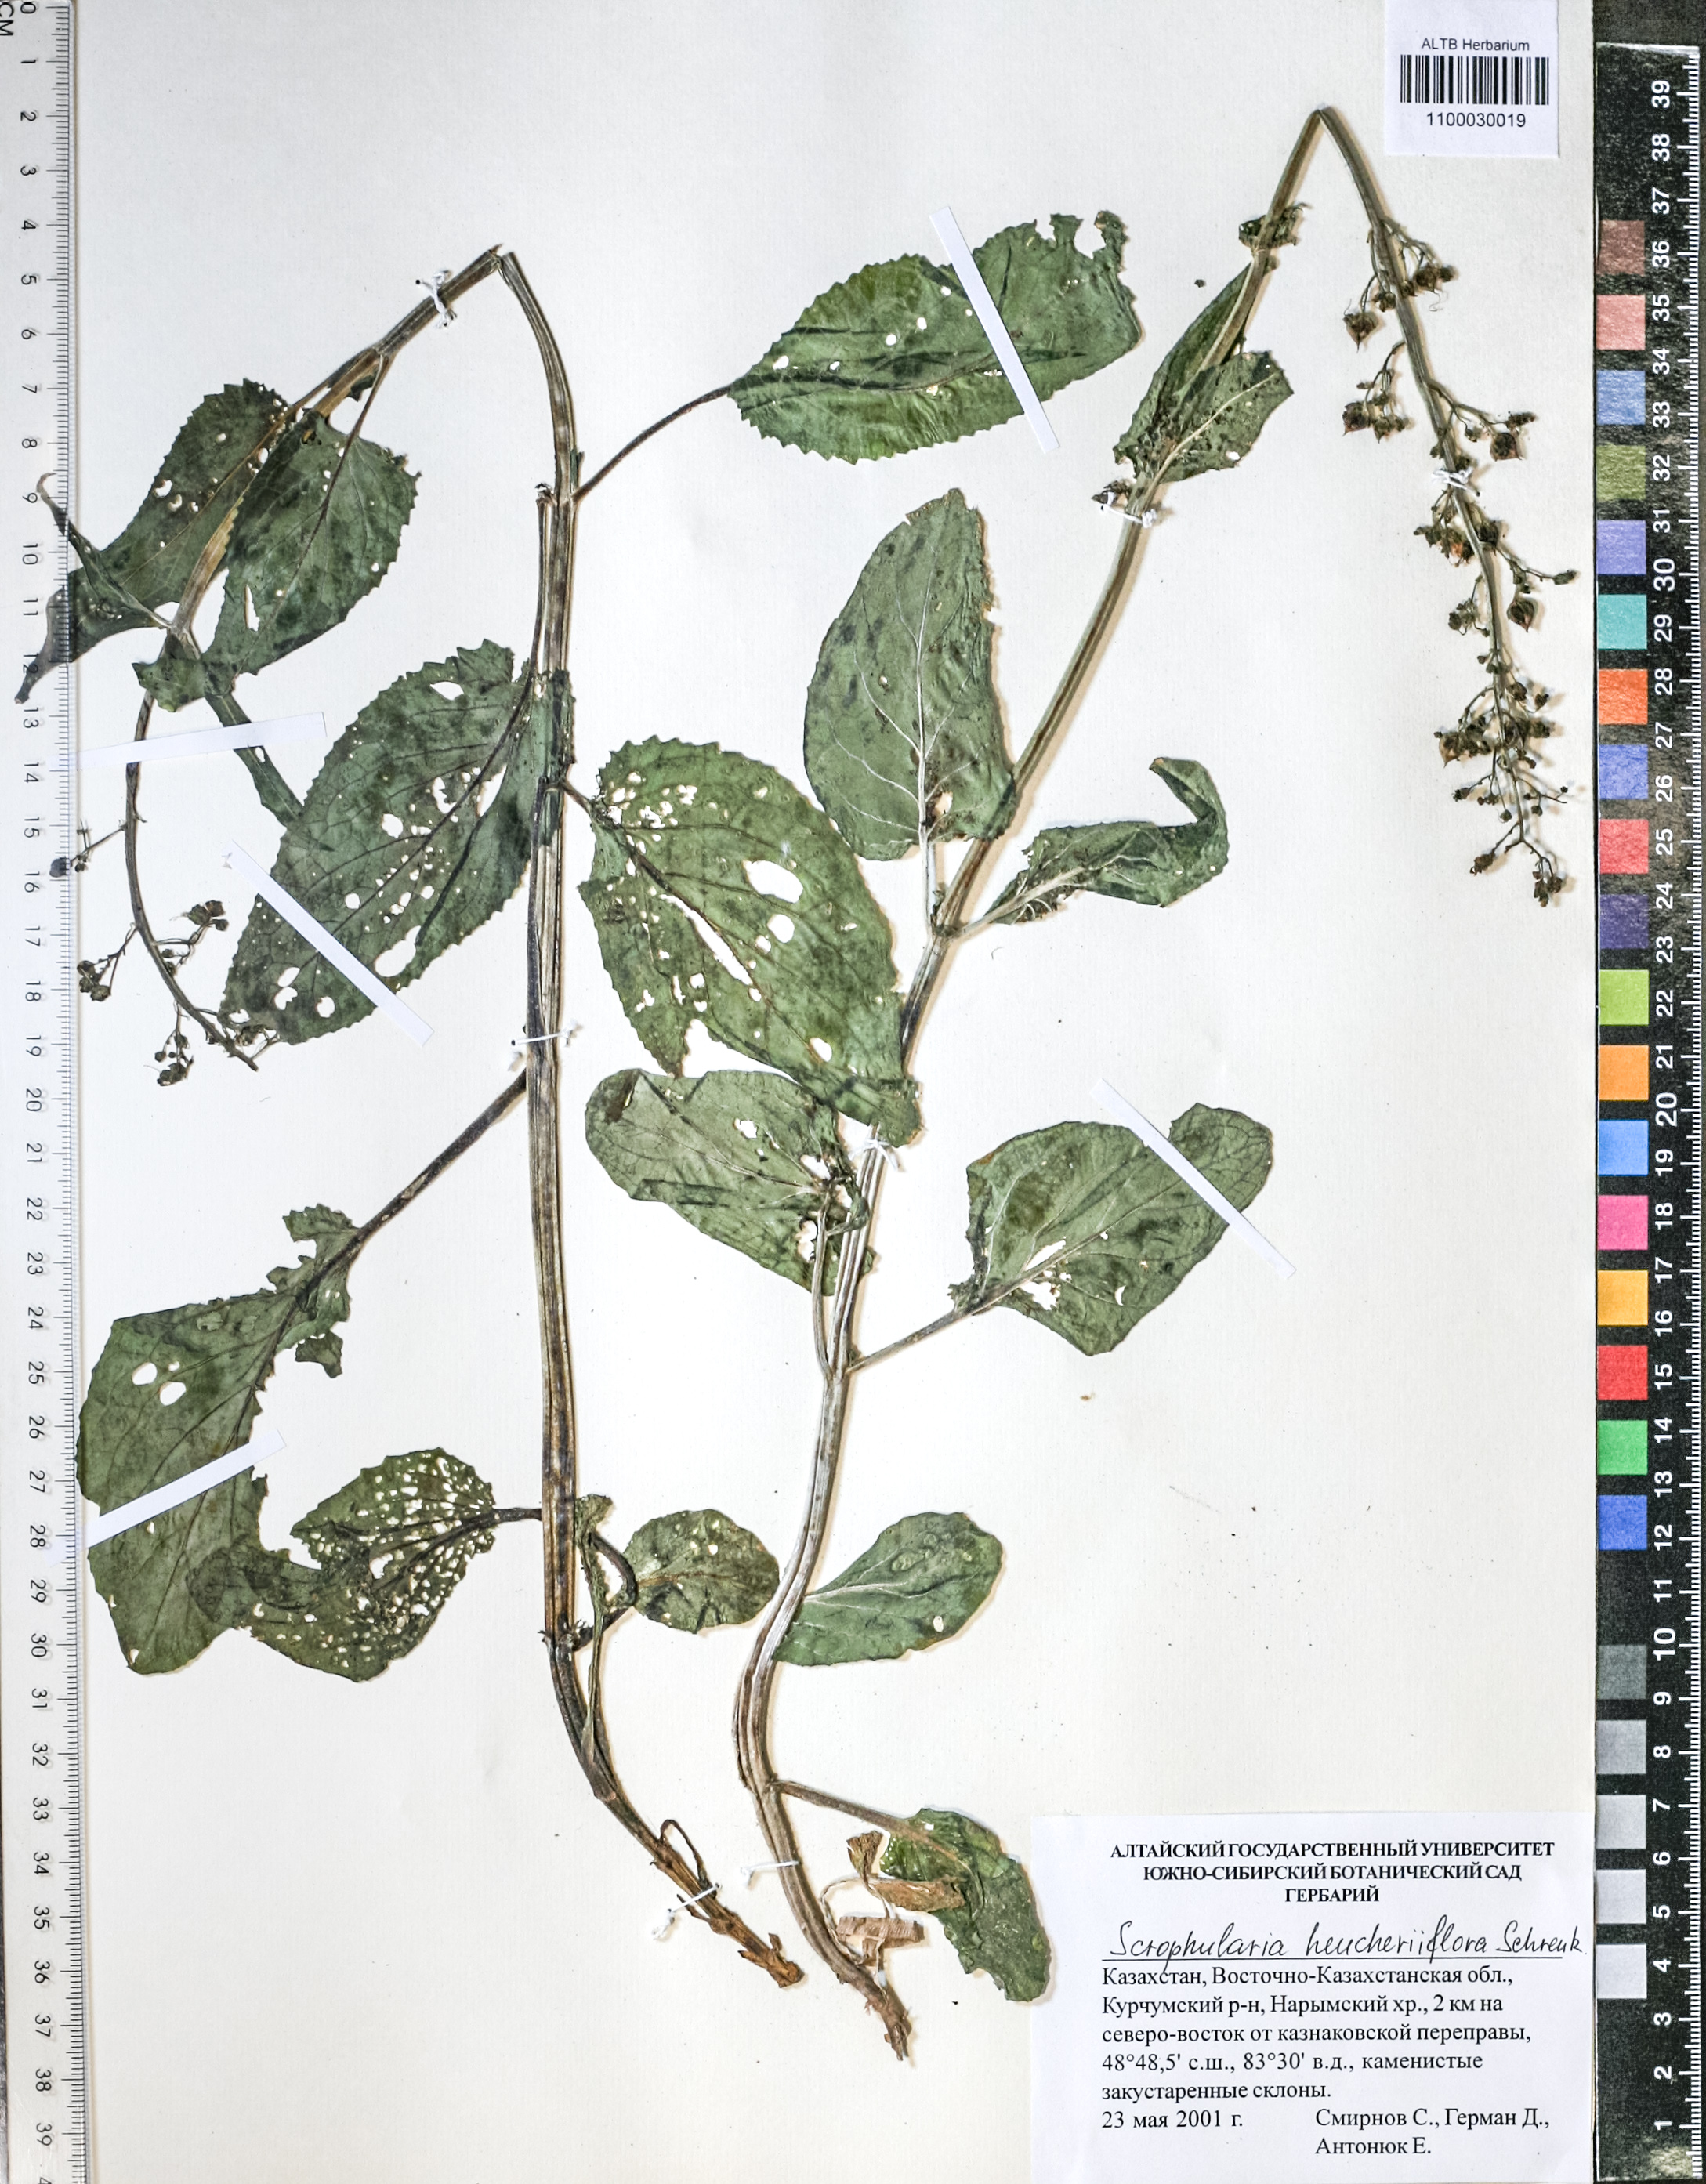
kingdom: Plantae
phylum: Tracheophyta
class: Magnoliopsida
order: Lamiales
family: Scrophulariaceae
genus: Scrophularia
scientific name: Scrophularia heucheriflora
